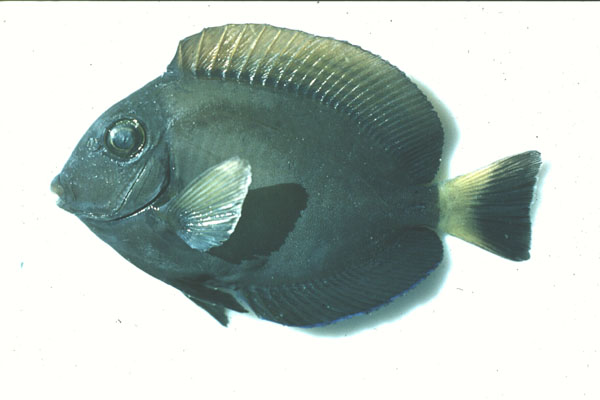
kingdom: Animalia
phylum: Chordata
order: Perciformes
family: Acanthuridae
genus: Acanthurus
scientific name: Acanthurus mata
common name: Bleeker's surgeonfish
